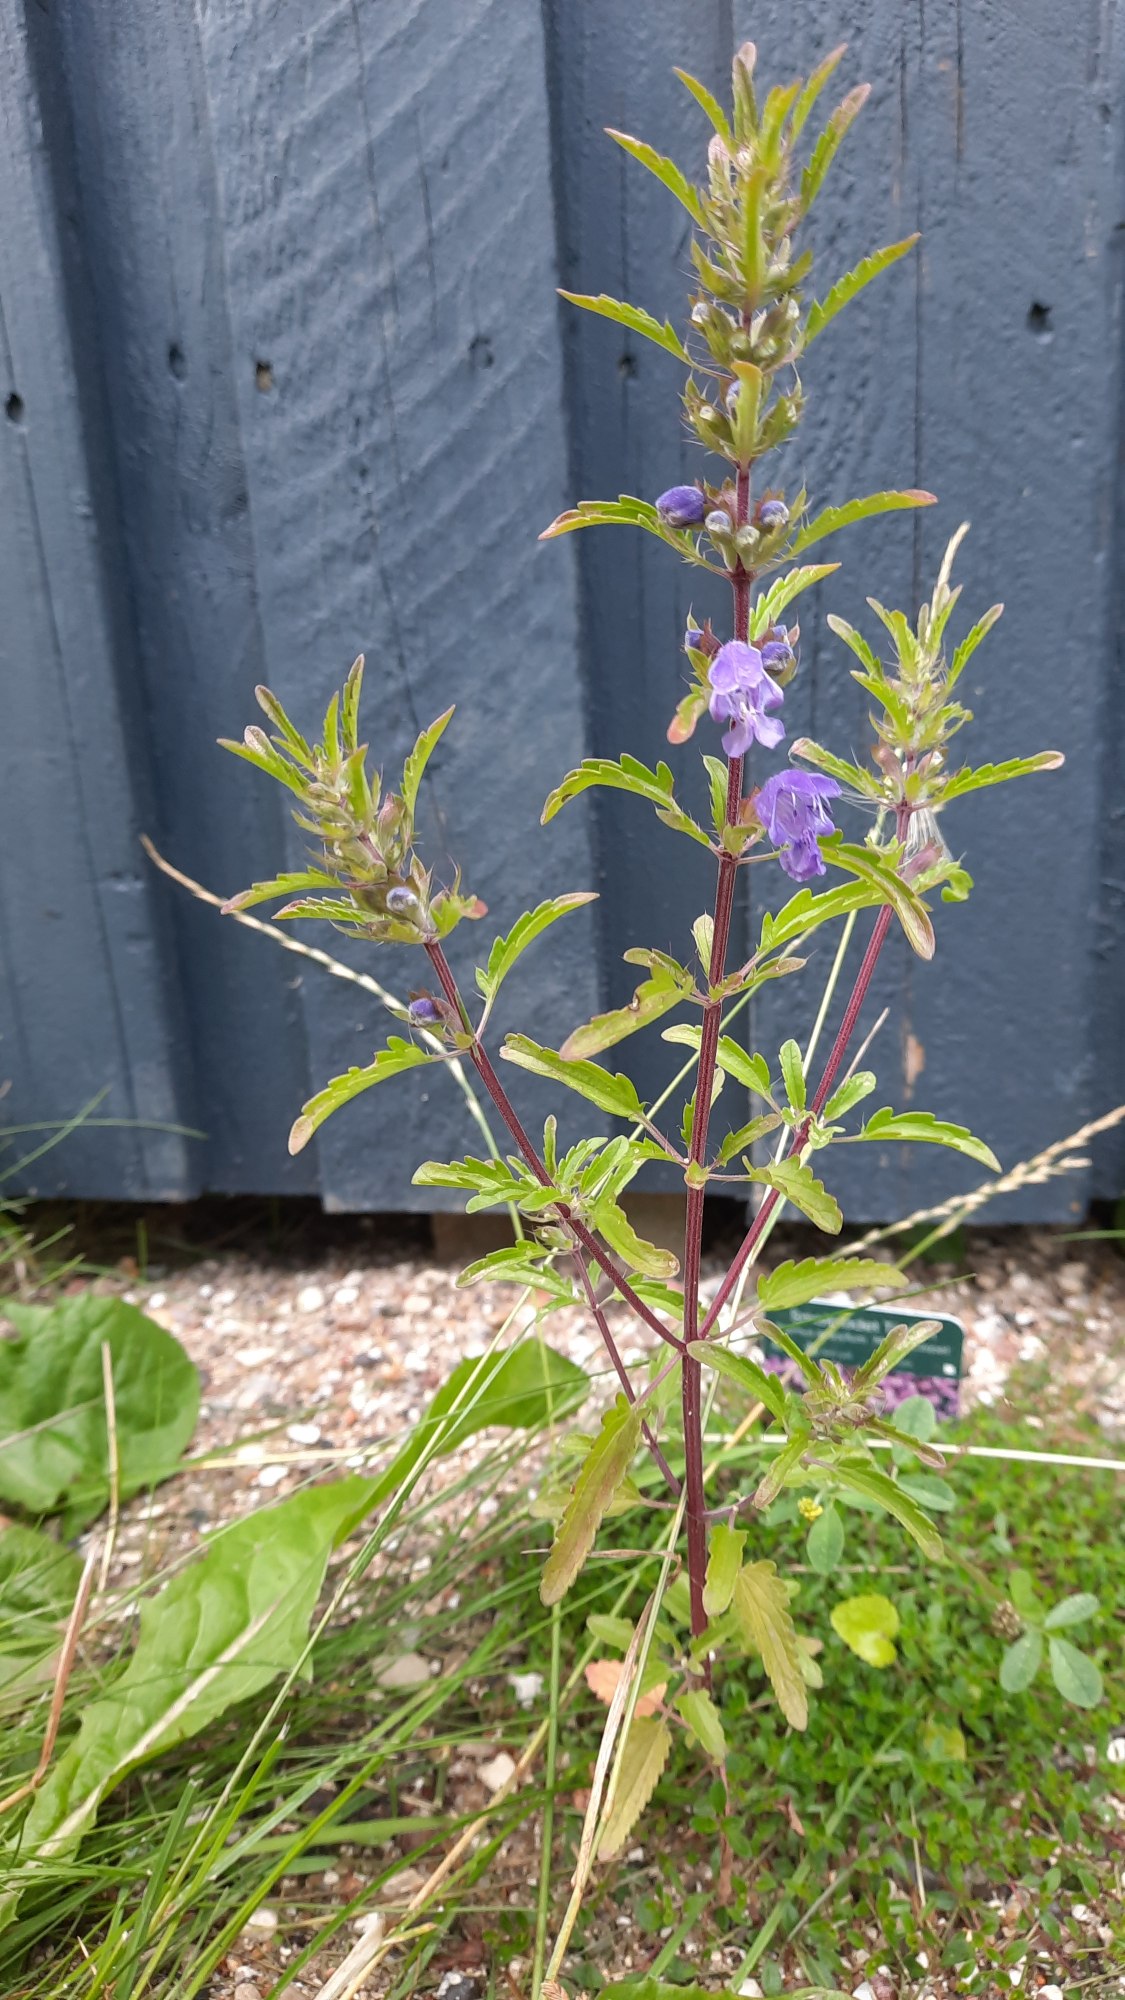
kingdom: Plantae
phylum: Tracheophyta
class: Magnoliopsida
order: Lamiales
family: Lamiaceae
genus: Dracocephalum
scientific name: Dracocephalum moldavica
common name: Moldavisk dragehoved
